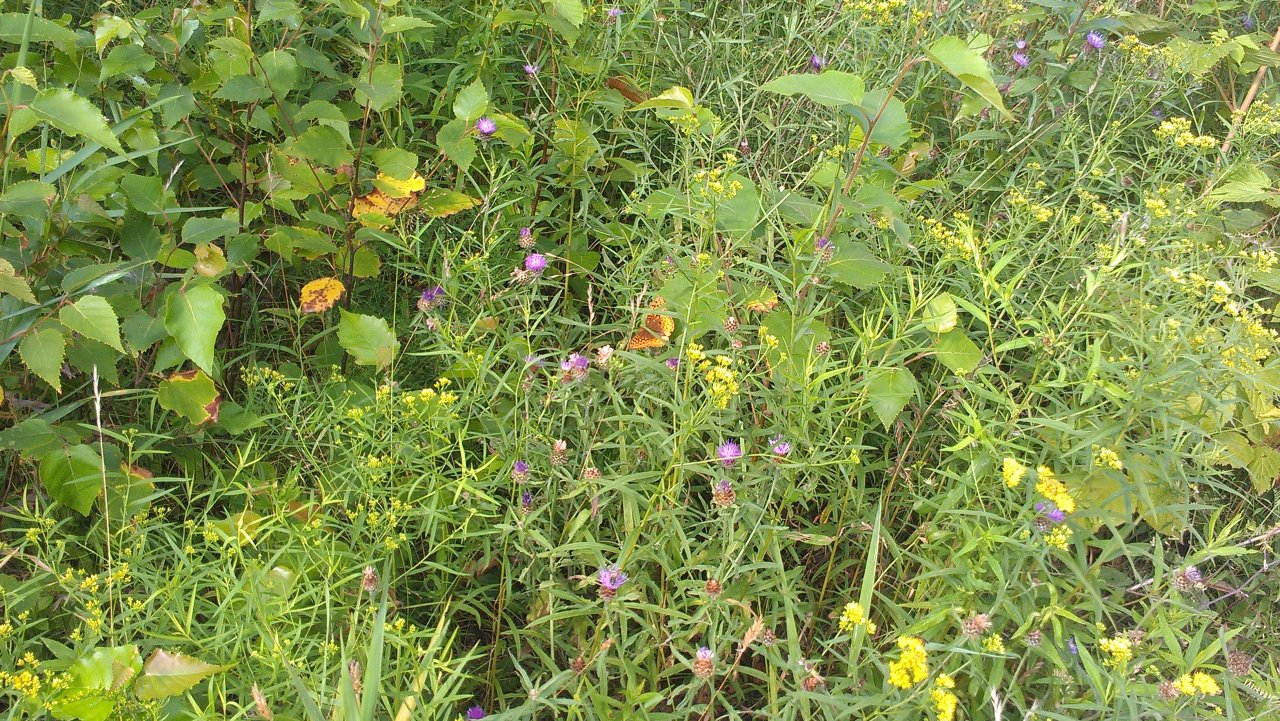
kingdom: Animalia
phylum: Arthropoda
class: Insecta
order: Lepidoptera
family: Nymphalidae
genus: Speyeria
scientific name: Speyeria cybele
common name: Great Spangled Fritillary
